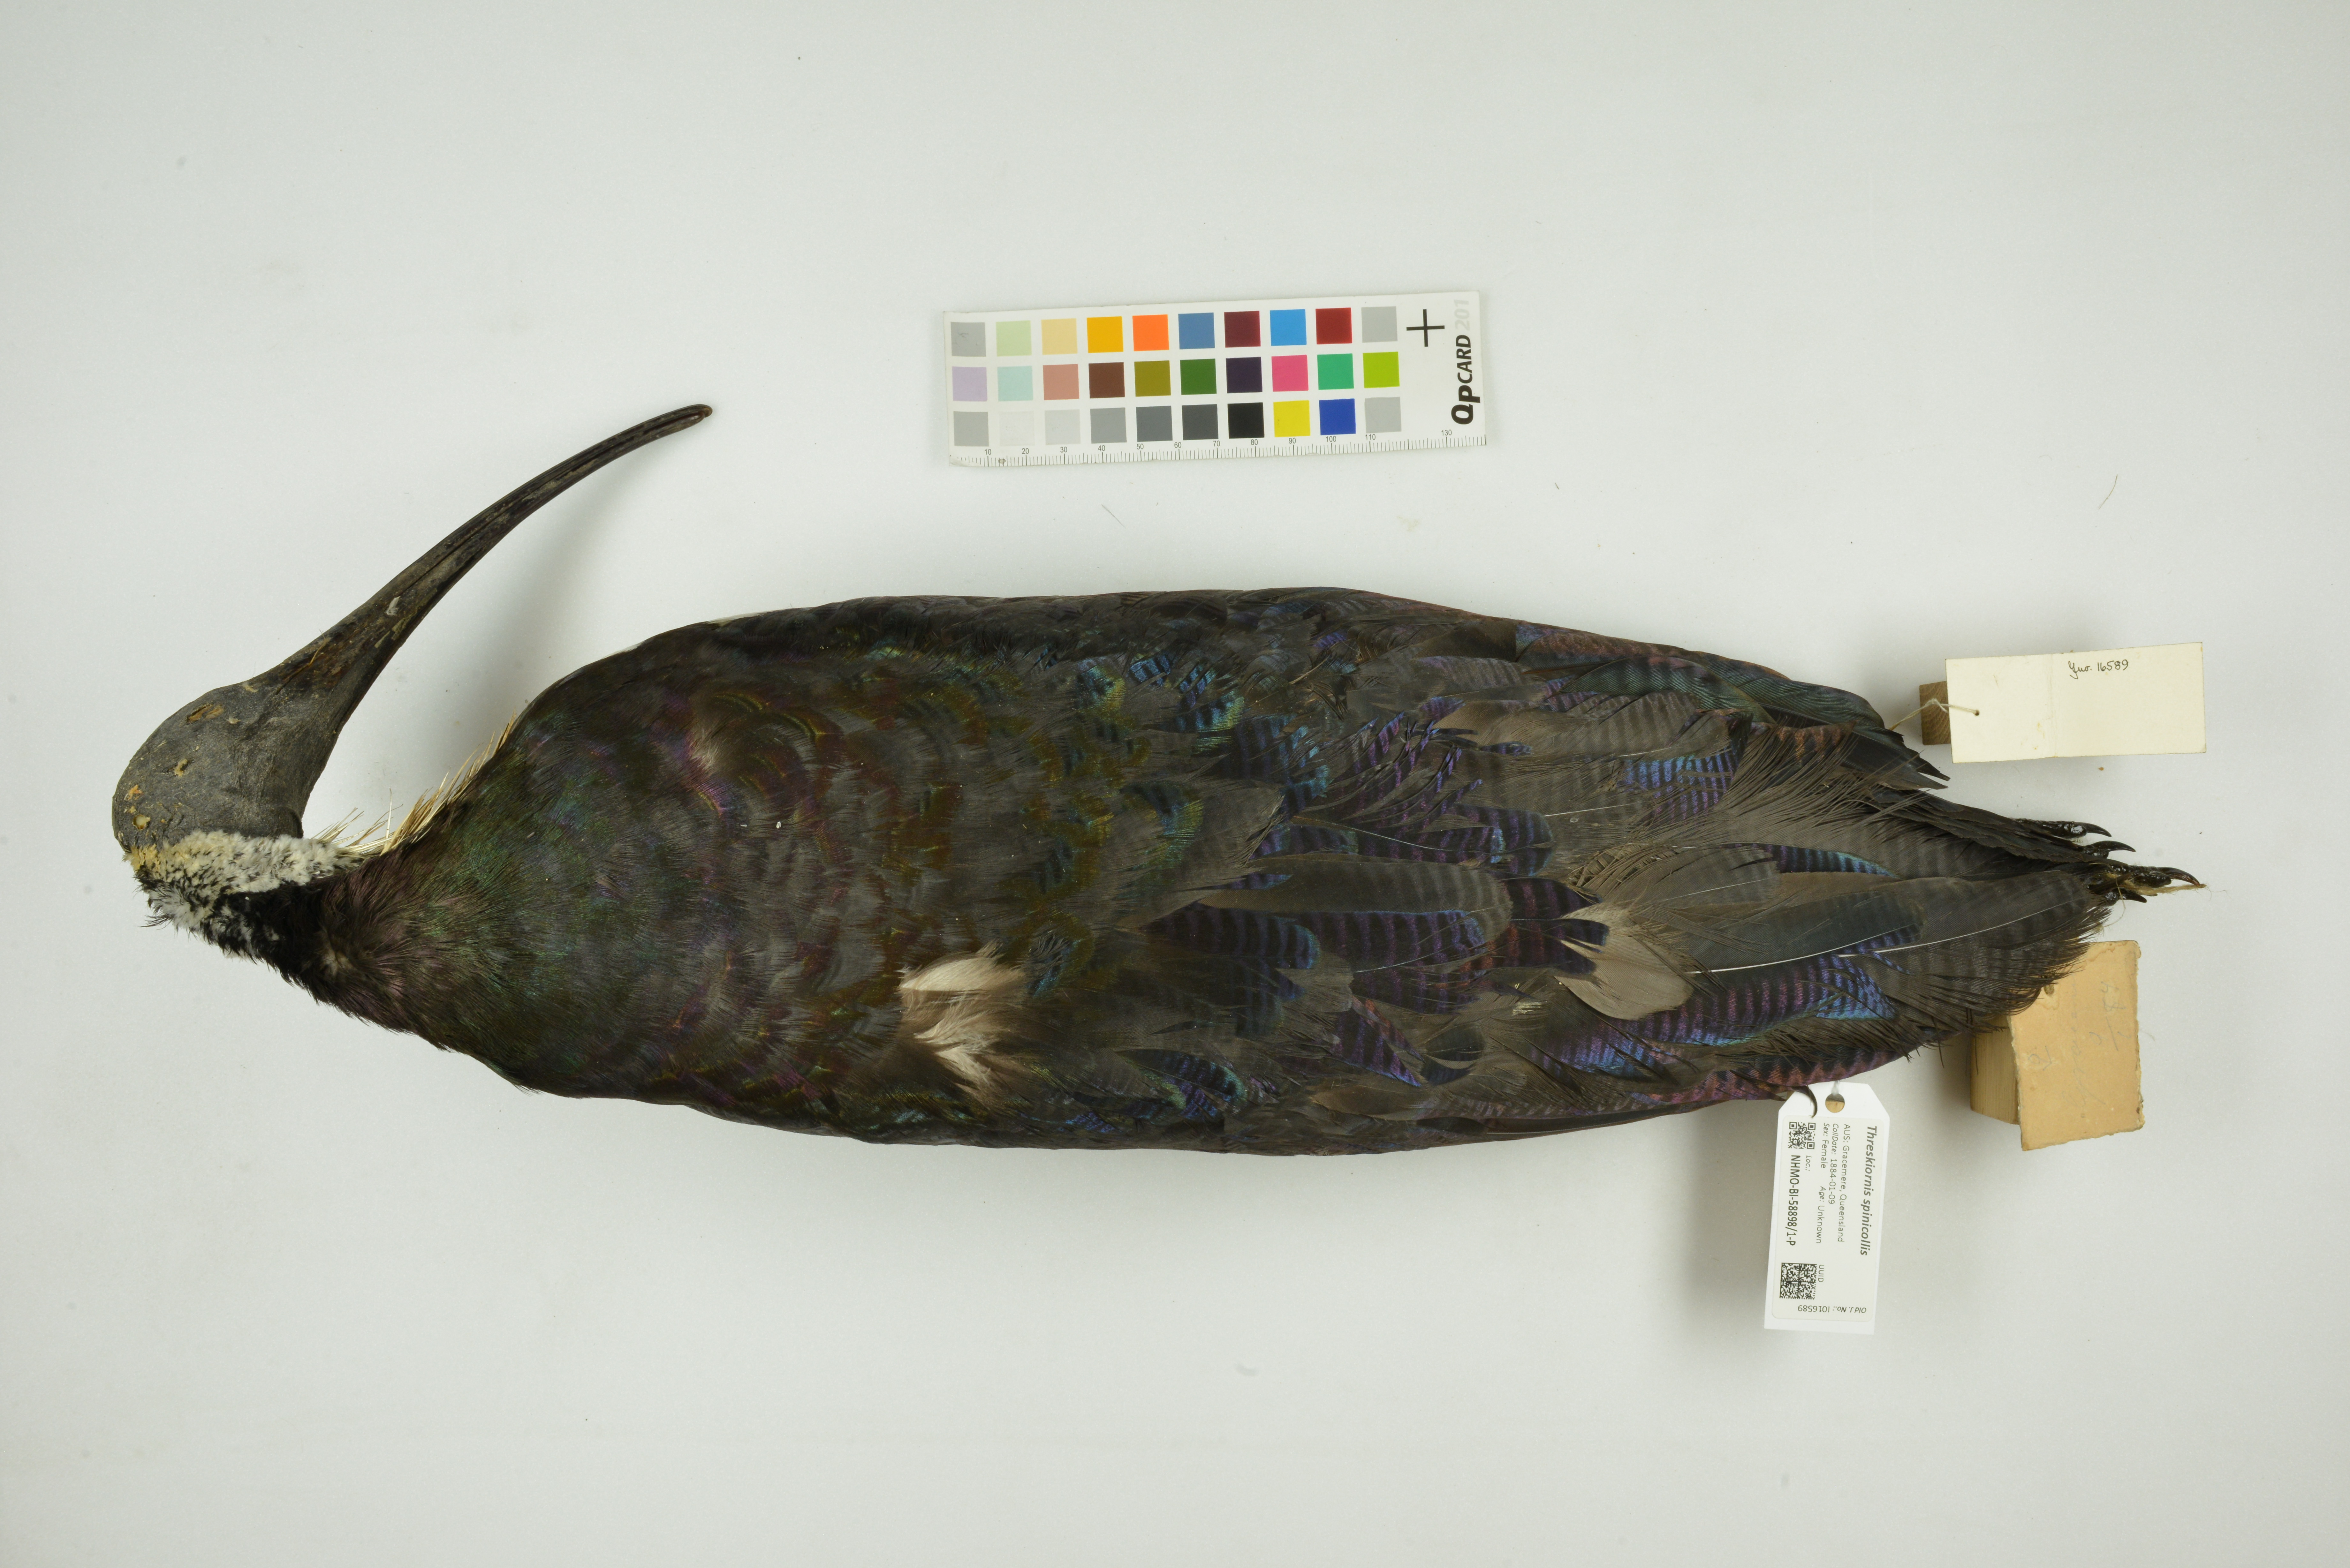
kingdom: Animalia
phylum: Chordata
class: Aves
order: Pelecaniformes
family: Threskiornithidae
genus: Threskiornis
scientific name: Threskiornis spinicollis
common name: Straw-necked ibis
